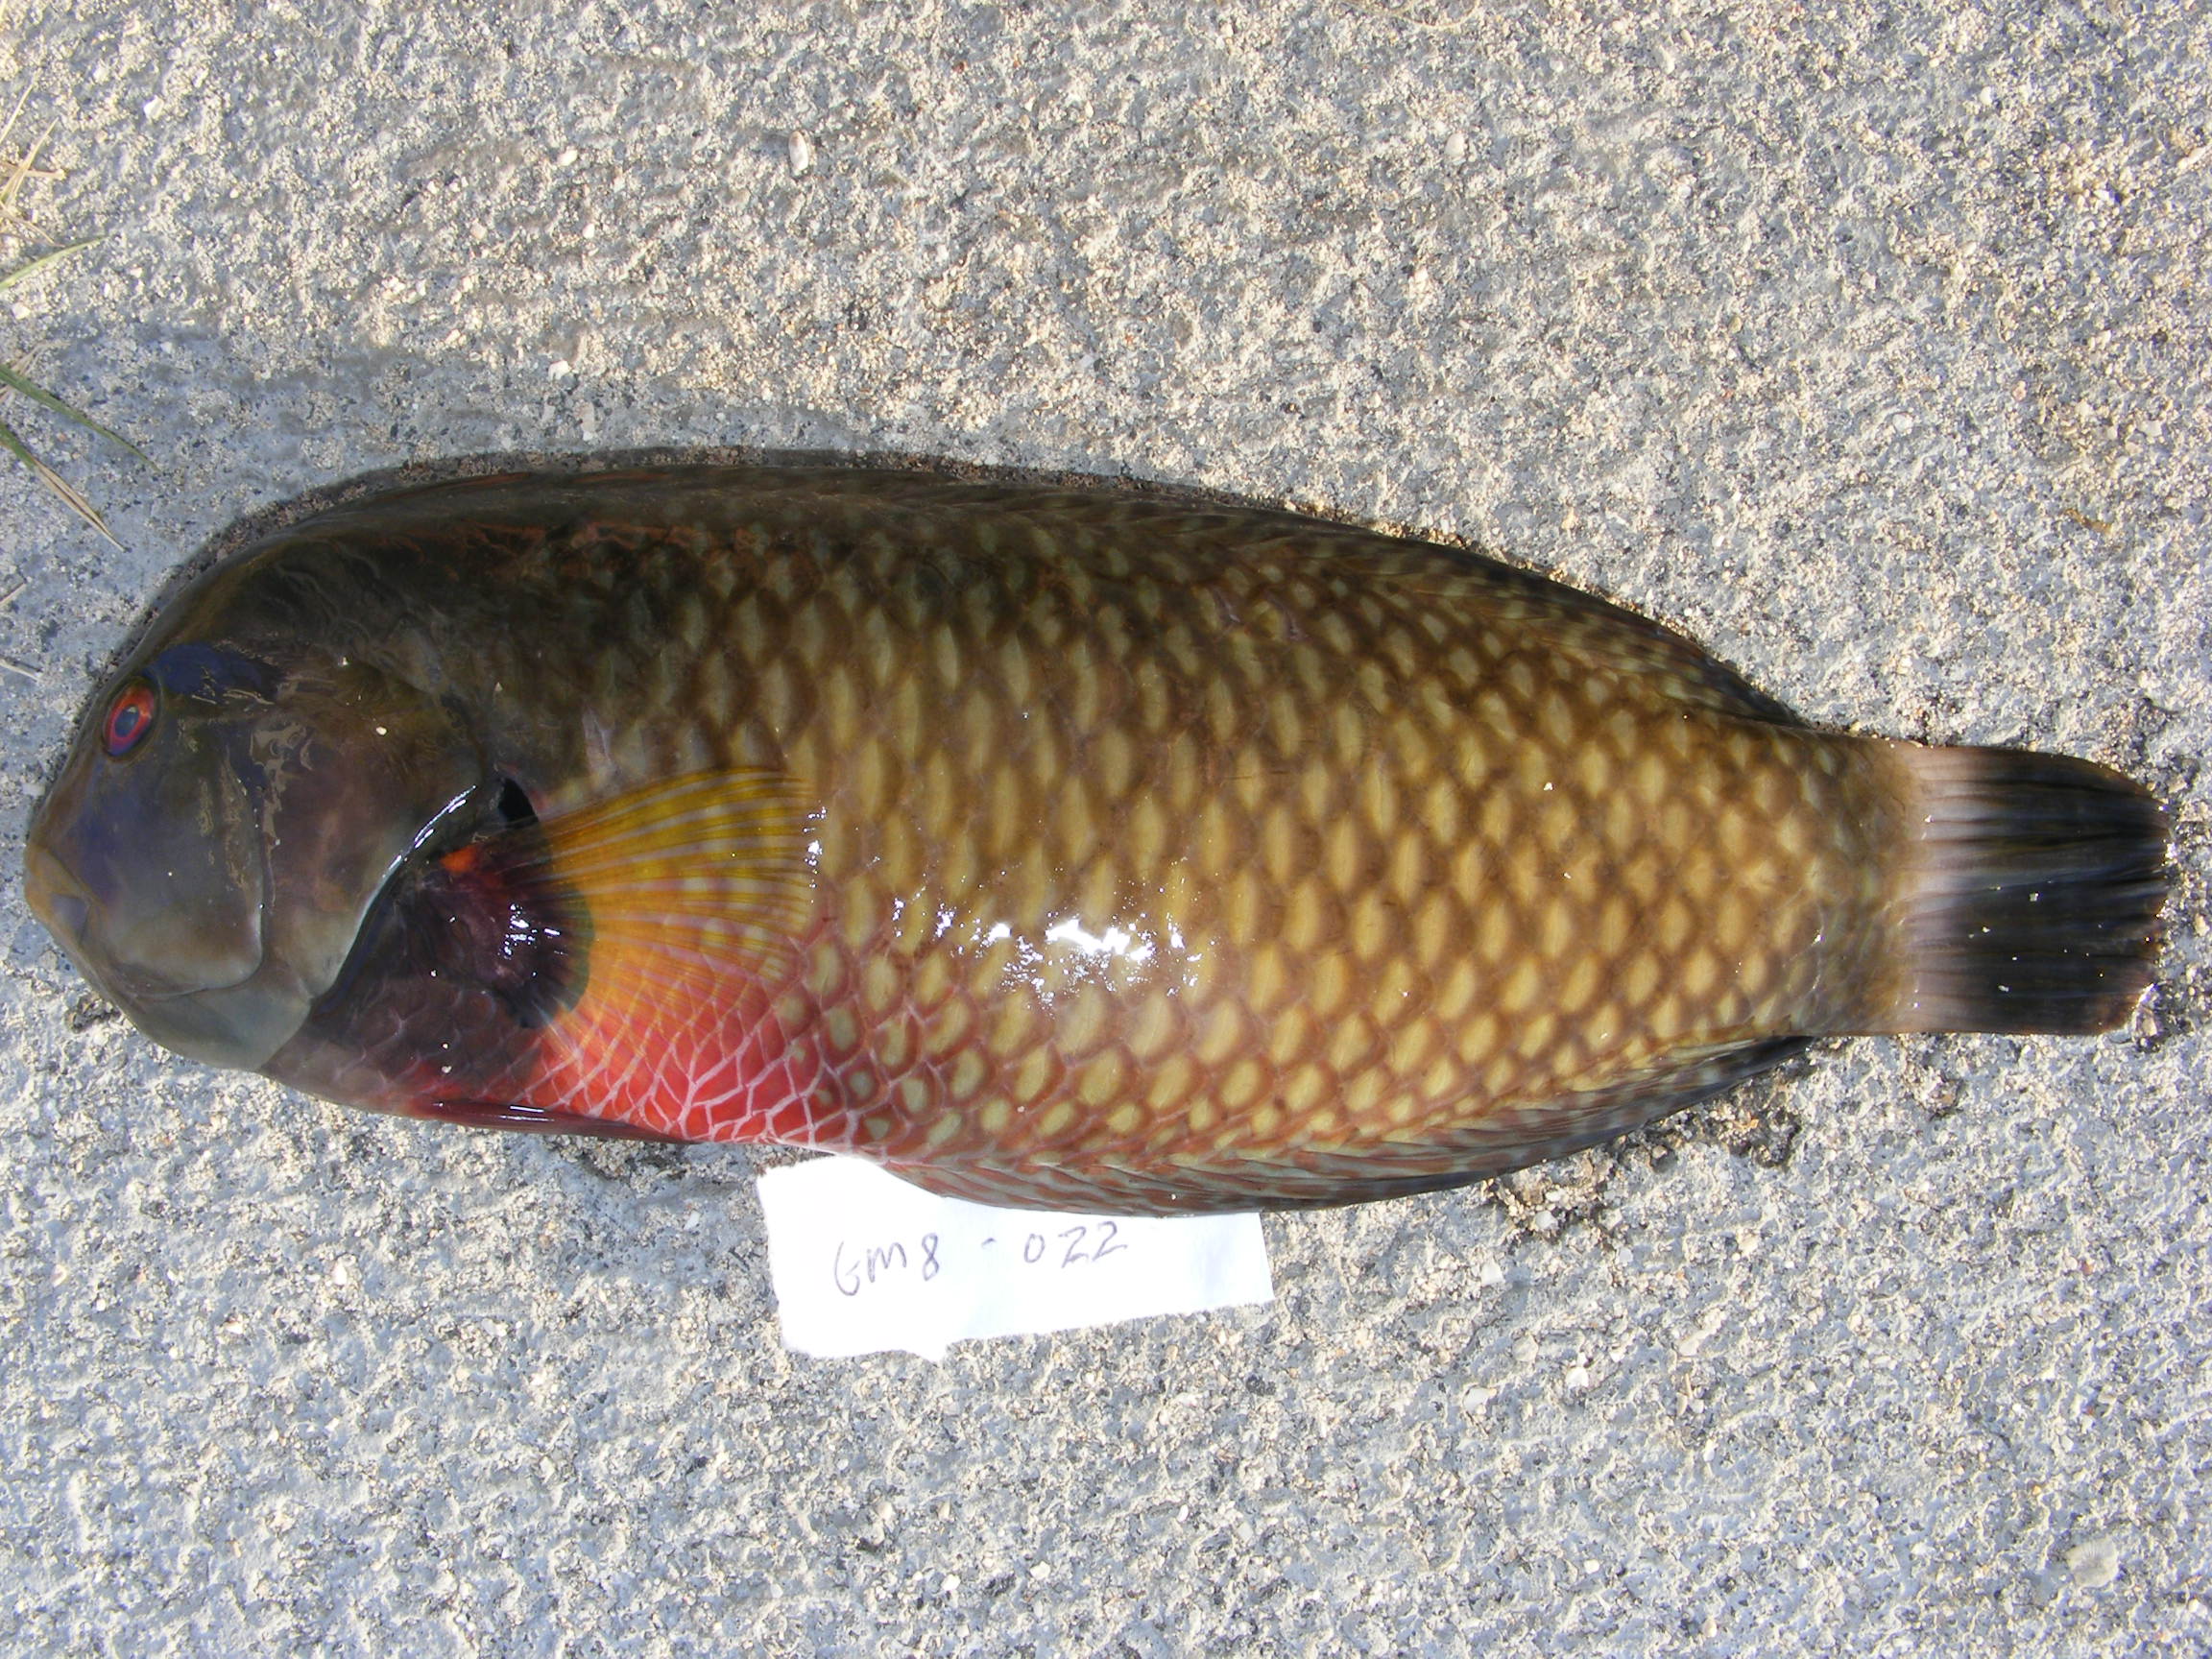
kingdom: Animalia
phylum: Chordata
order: Perciformes
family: Labridae
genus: Novaculichthys
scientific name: Novaculichthys taeniourus
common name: Rockmover wrasse
